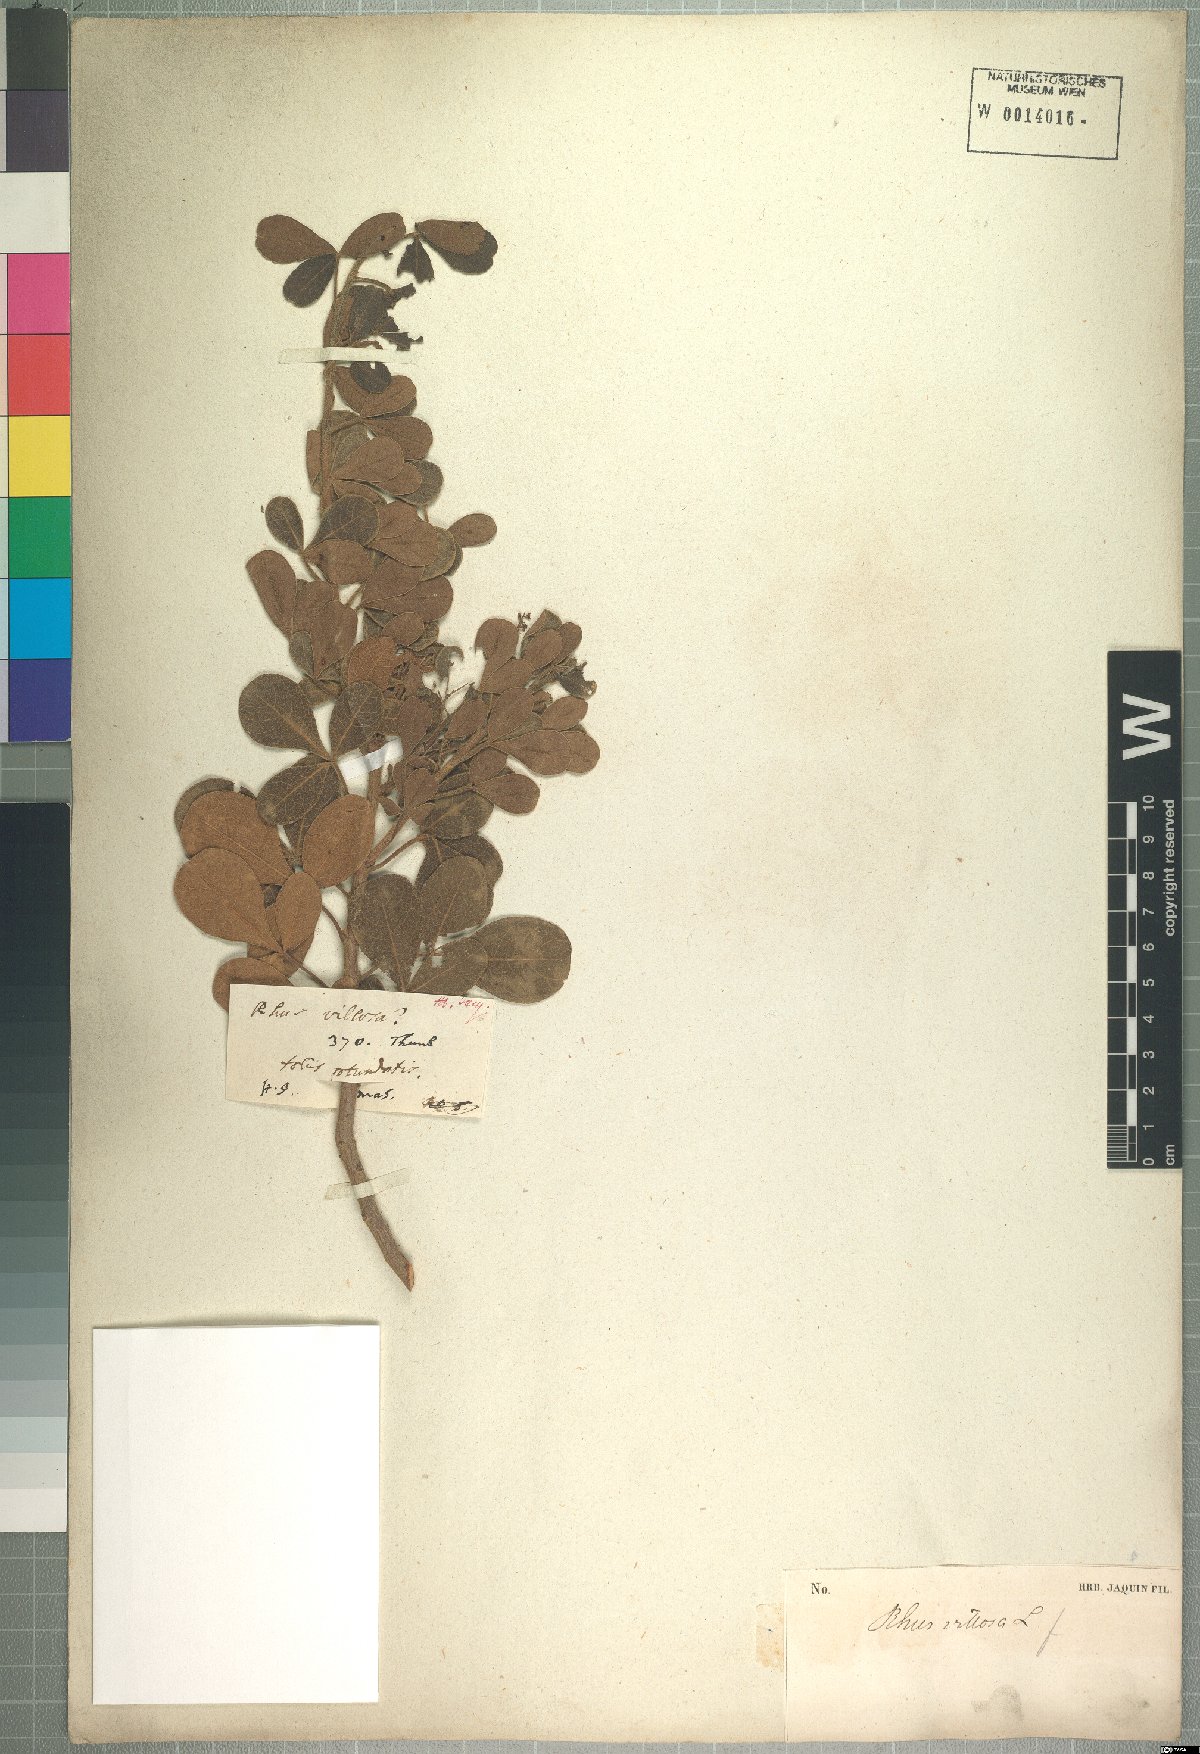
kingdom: Plantae
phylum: Tracheophyta
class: Magnoliopsida
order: Sapindales
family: Anacardiaceae
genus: Searsia
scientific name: Searsia laevigata
